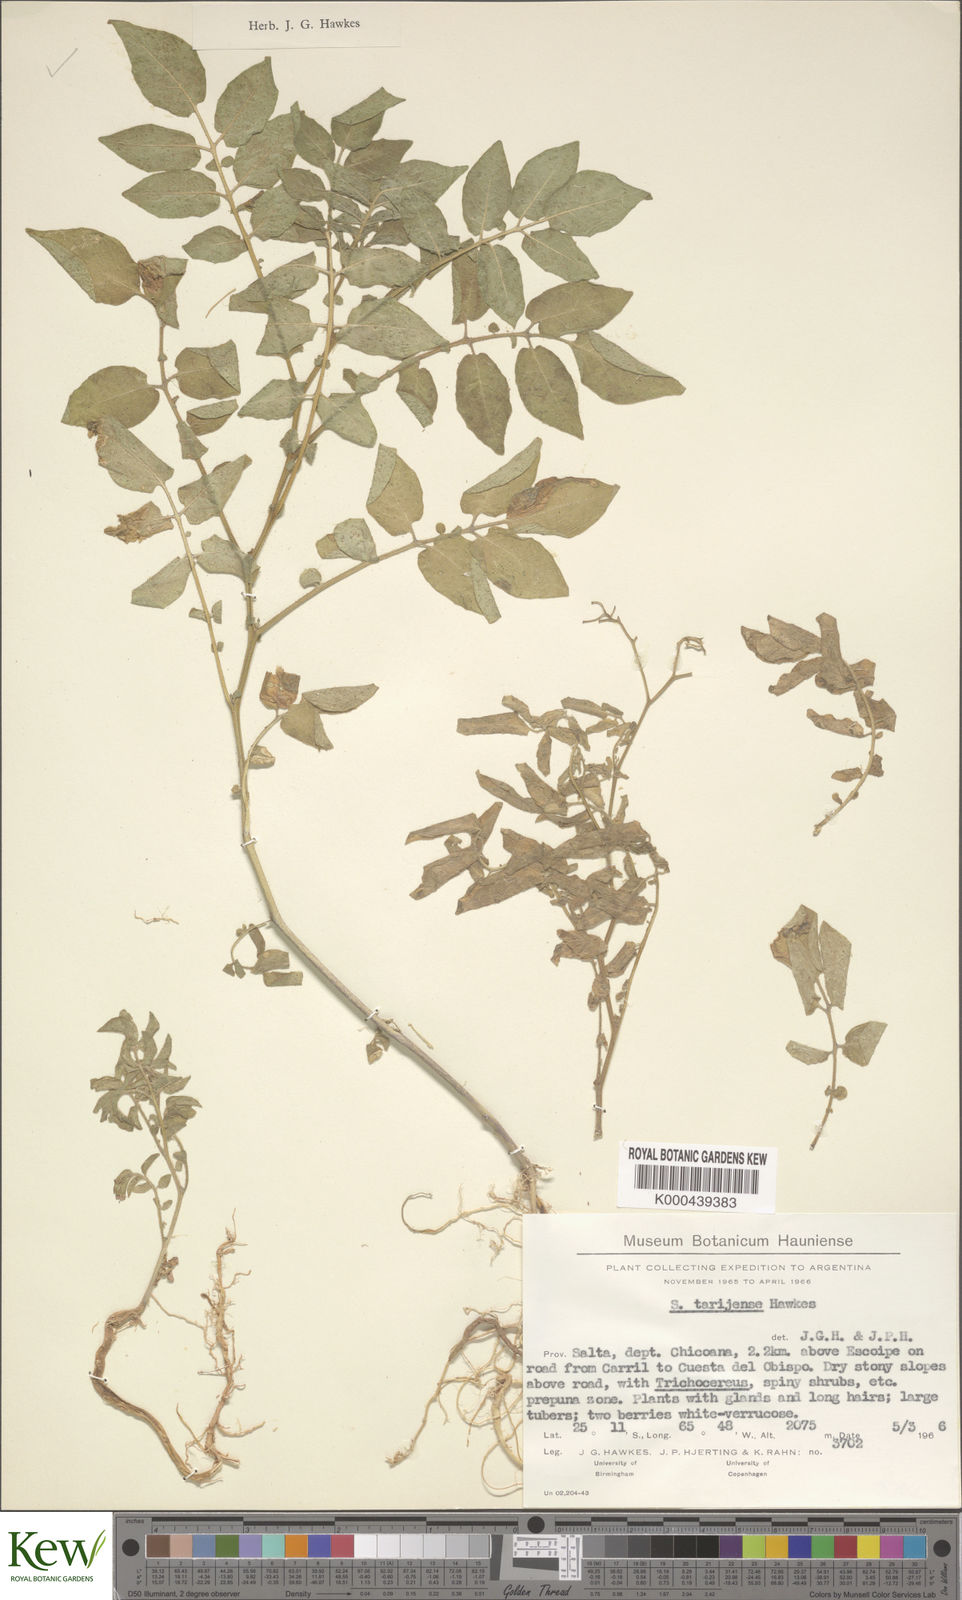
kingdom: Plantae
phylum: Tracheophyta
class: Magnoliopsida
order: Solanales
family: Solanaceae
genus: Solanum
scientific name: Solanum tarijense
